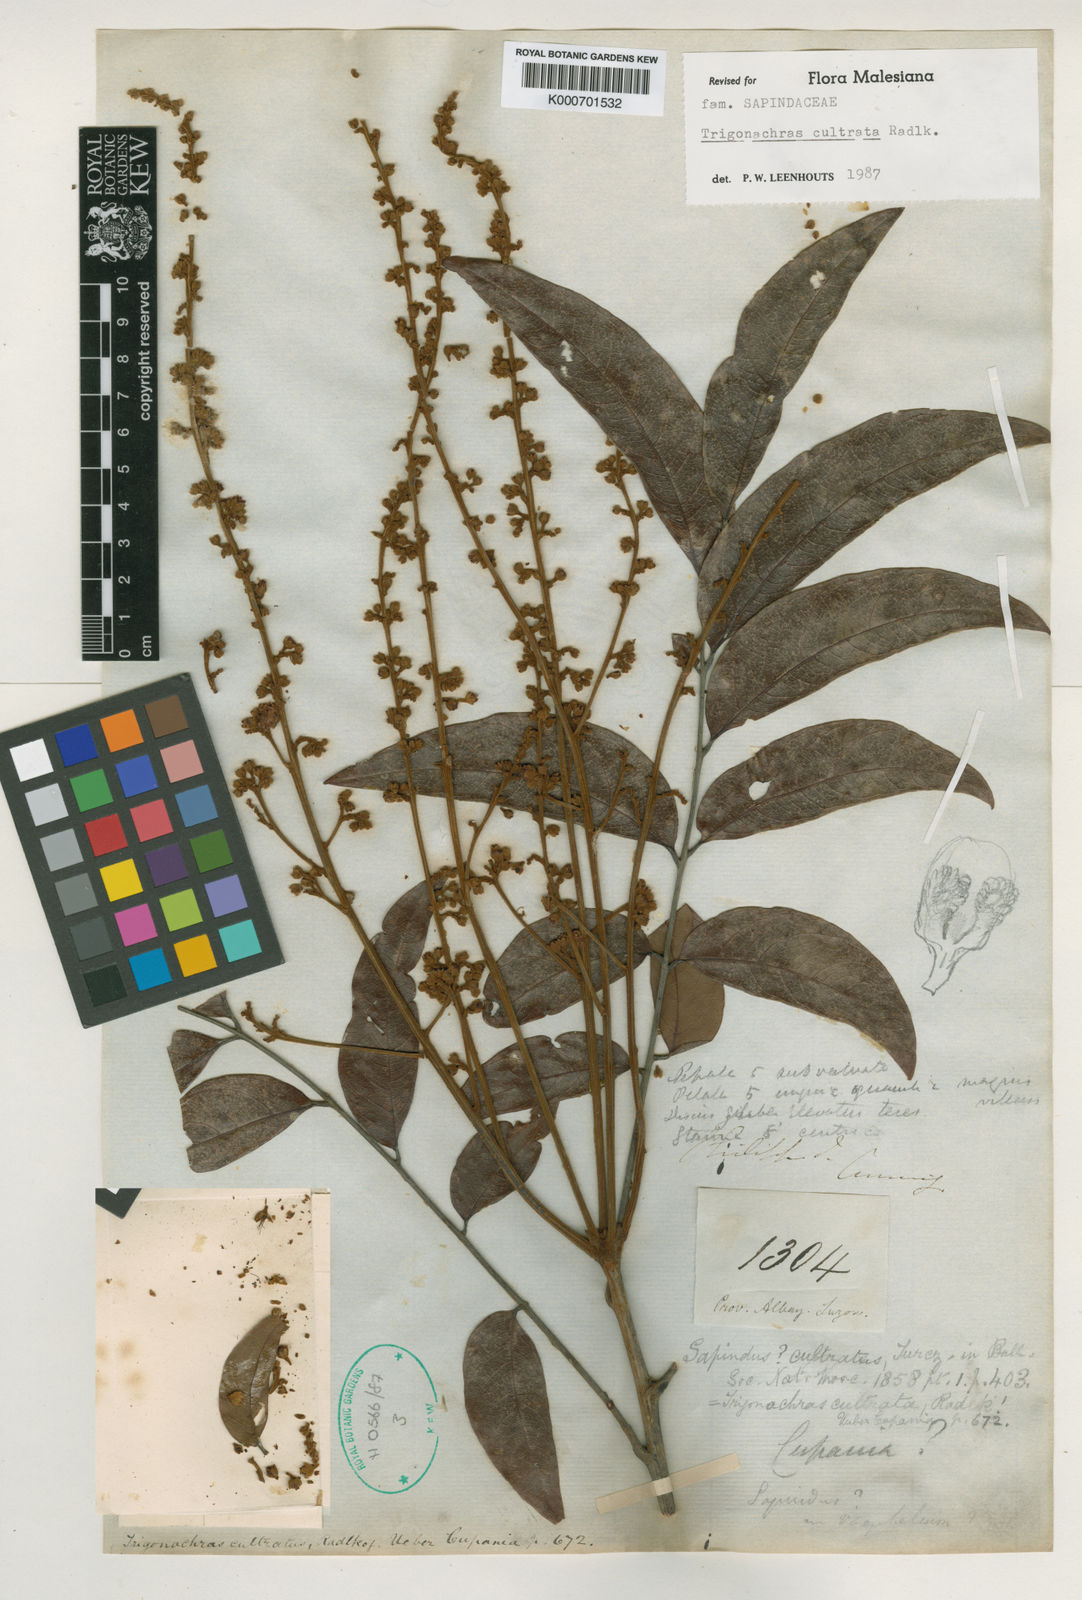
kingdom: Plantae
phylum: Tracheophyta
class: Magnoliopsida
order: Sapindales
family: Sapindaceae
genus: Trigonachras
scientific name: Trigonachras cultrata
